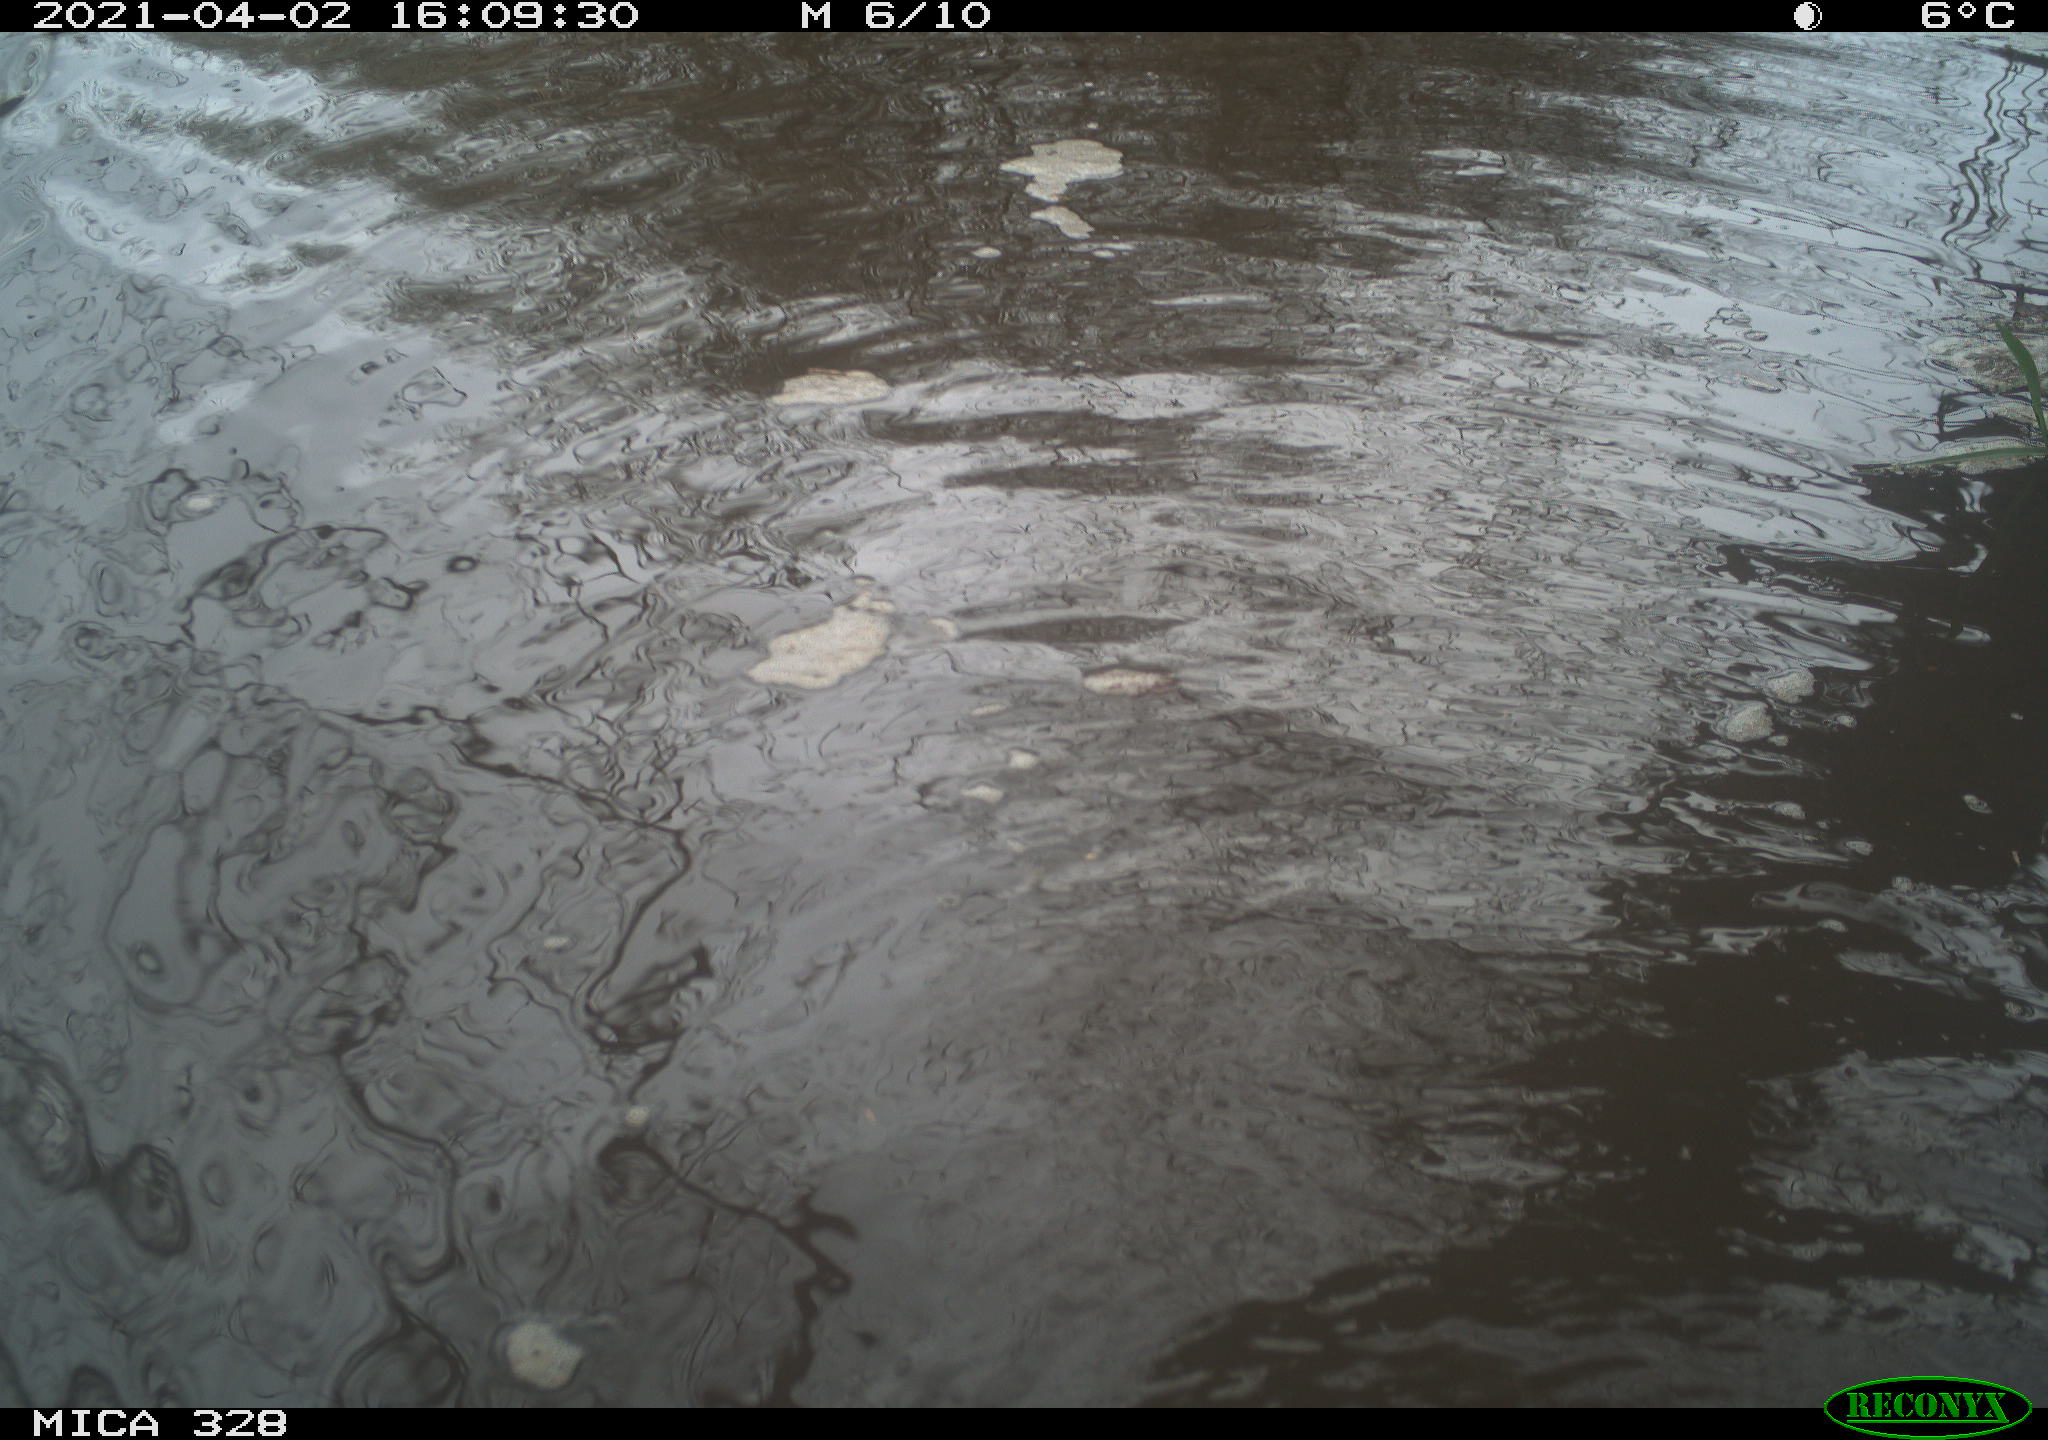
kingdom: Animalia
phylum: Chordata
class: Mammalia
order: Rodentia
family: Cricetidae
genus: Ondatra
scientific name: Ondatra zibethicus
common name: Muskrat
